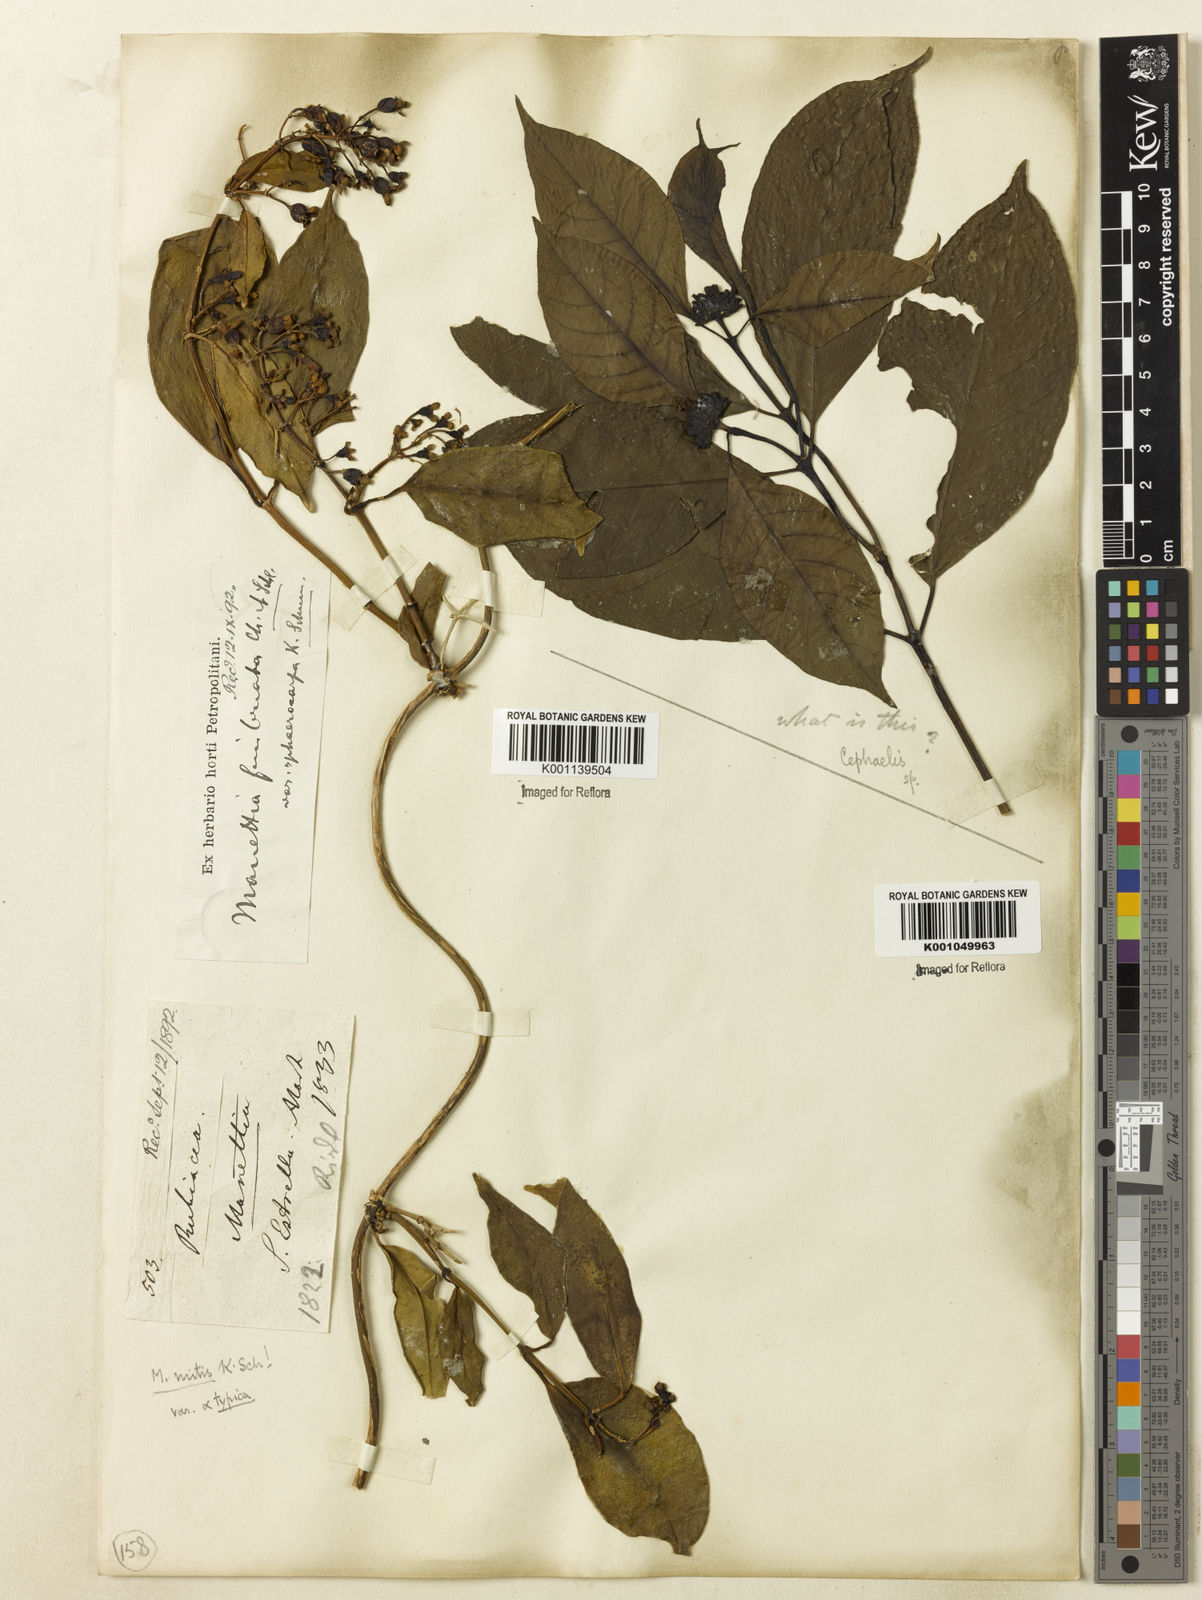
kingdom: Plantae
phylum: Tracheophyta
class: Magnoliopsida
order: Gentianales
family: Rubiaceae
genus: Manettia
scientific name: Manettia mitis
